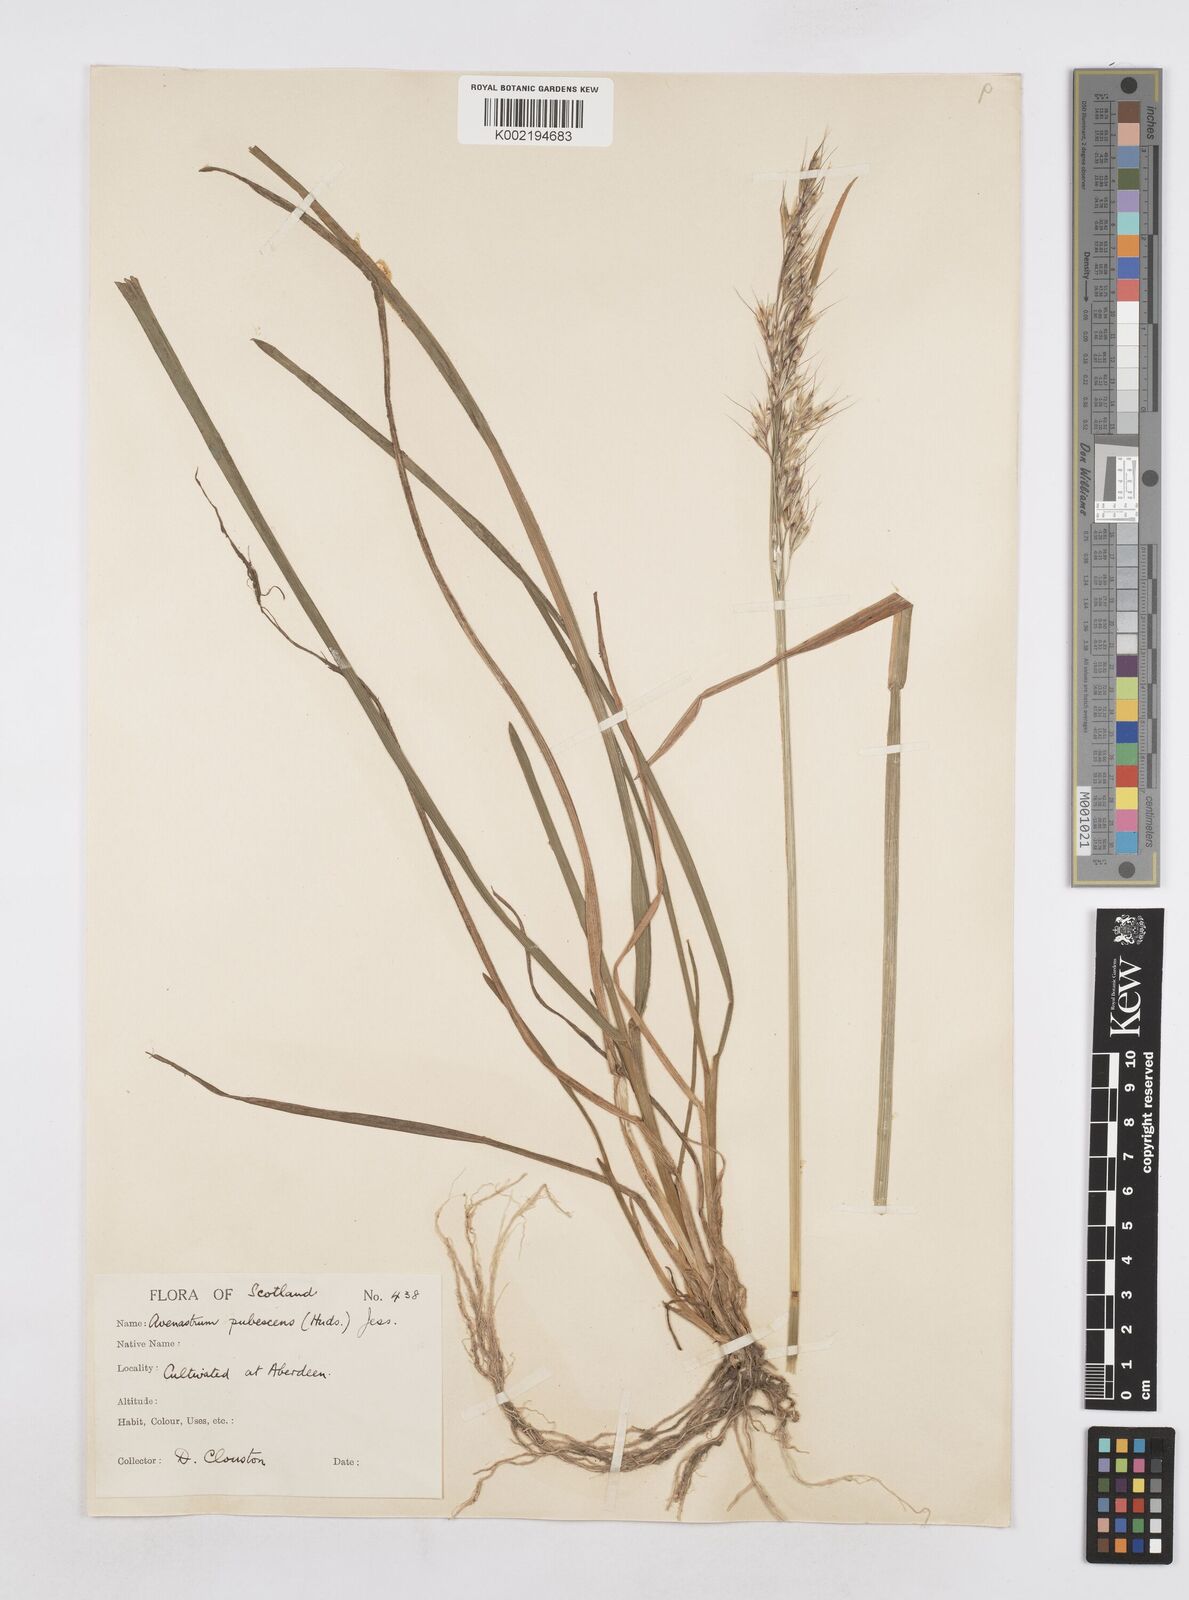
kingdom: Plantae
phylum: Tracheophyta
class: Liliopsida
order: Poales
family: Poaceae
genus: Avenula
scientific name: Avenula pubescens
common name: Downy alpine oatgrass
